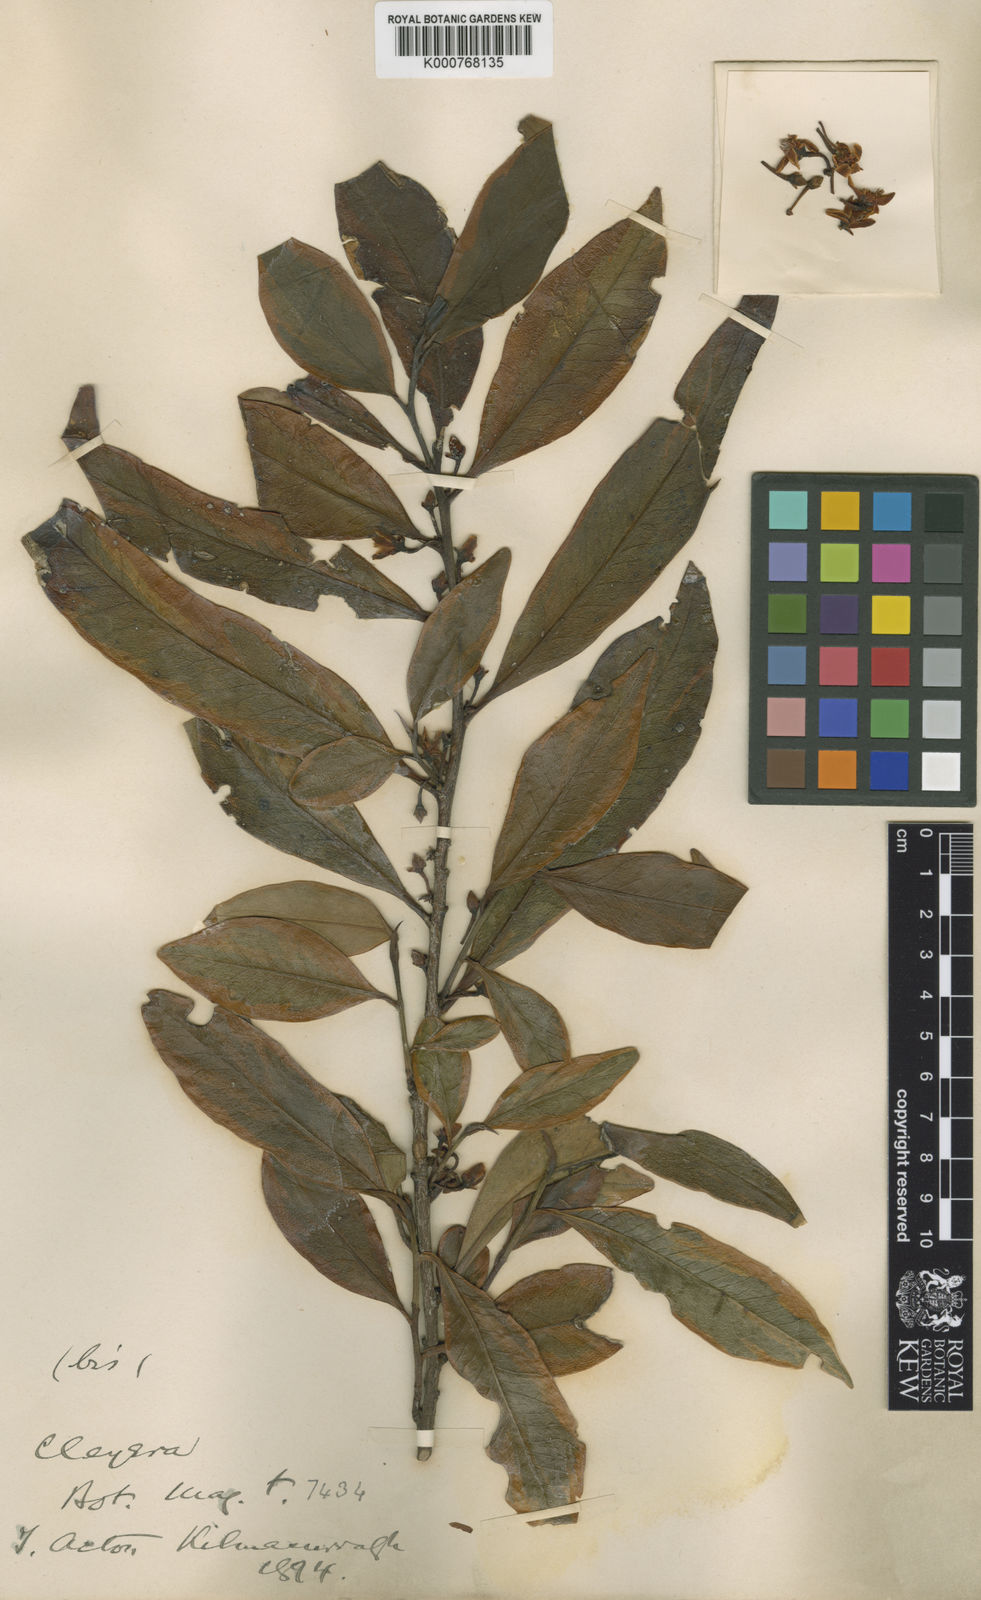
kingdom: Plantae
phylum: Tracheophyta
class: Magnoliopsida
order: Ericales
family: Pentaphylacaceae
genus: Cleyera
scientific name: Cleyera japonica
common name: Sakaki
